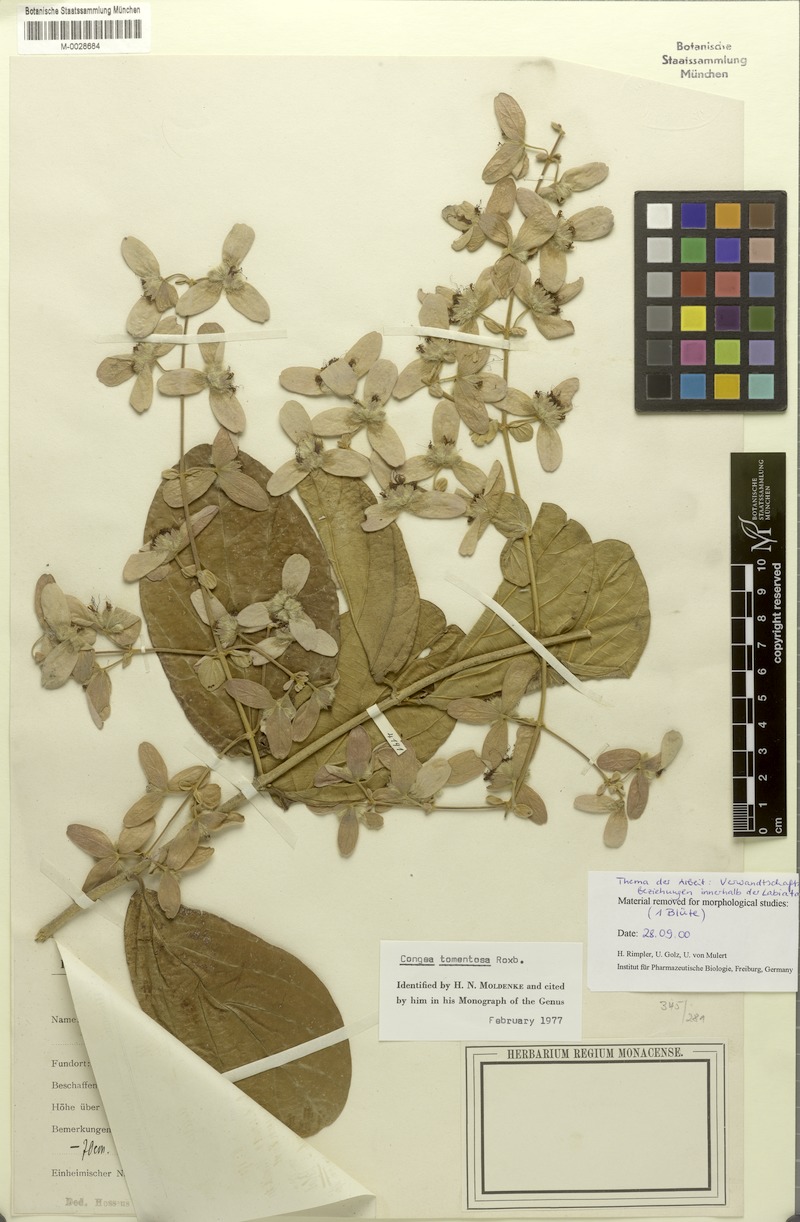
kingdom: Plantae
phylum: Tracheophyta
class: Magnoliopsida
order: Lamiales
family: Lamiaceae
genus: Congea
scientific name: Congea tomentosa
